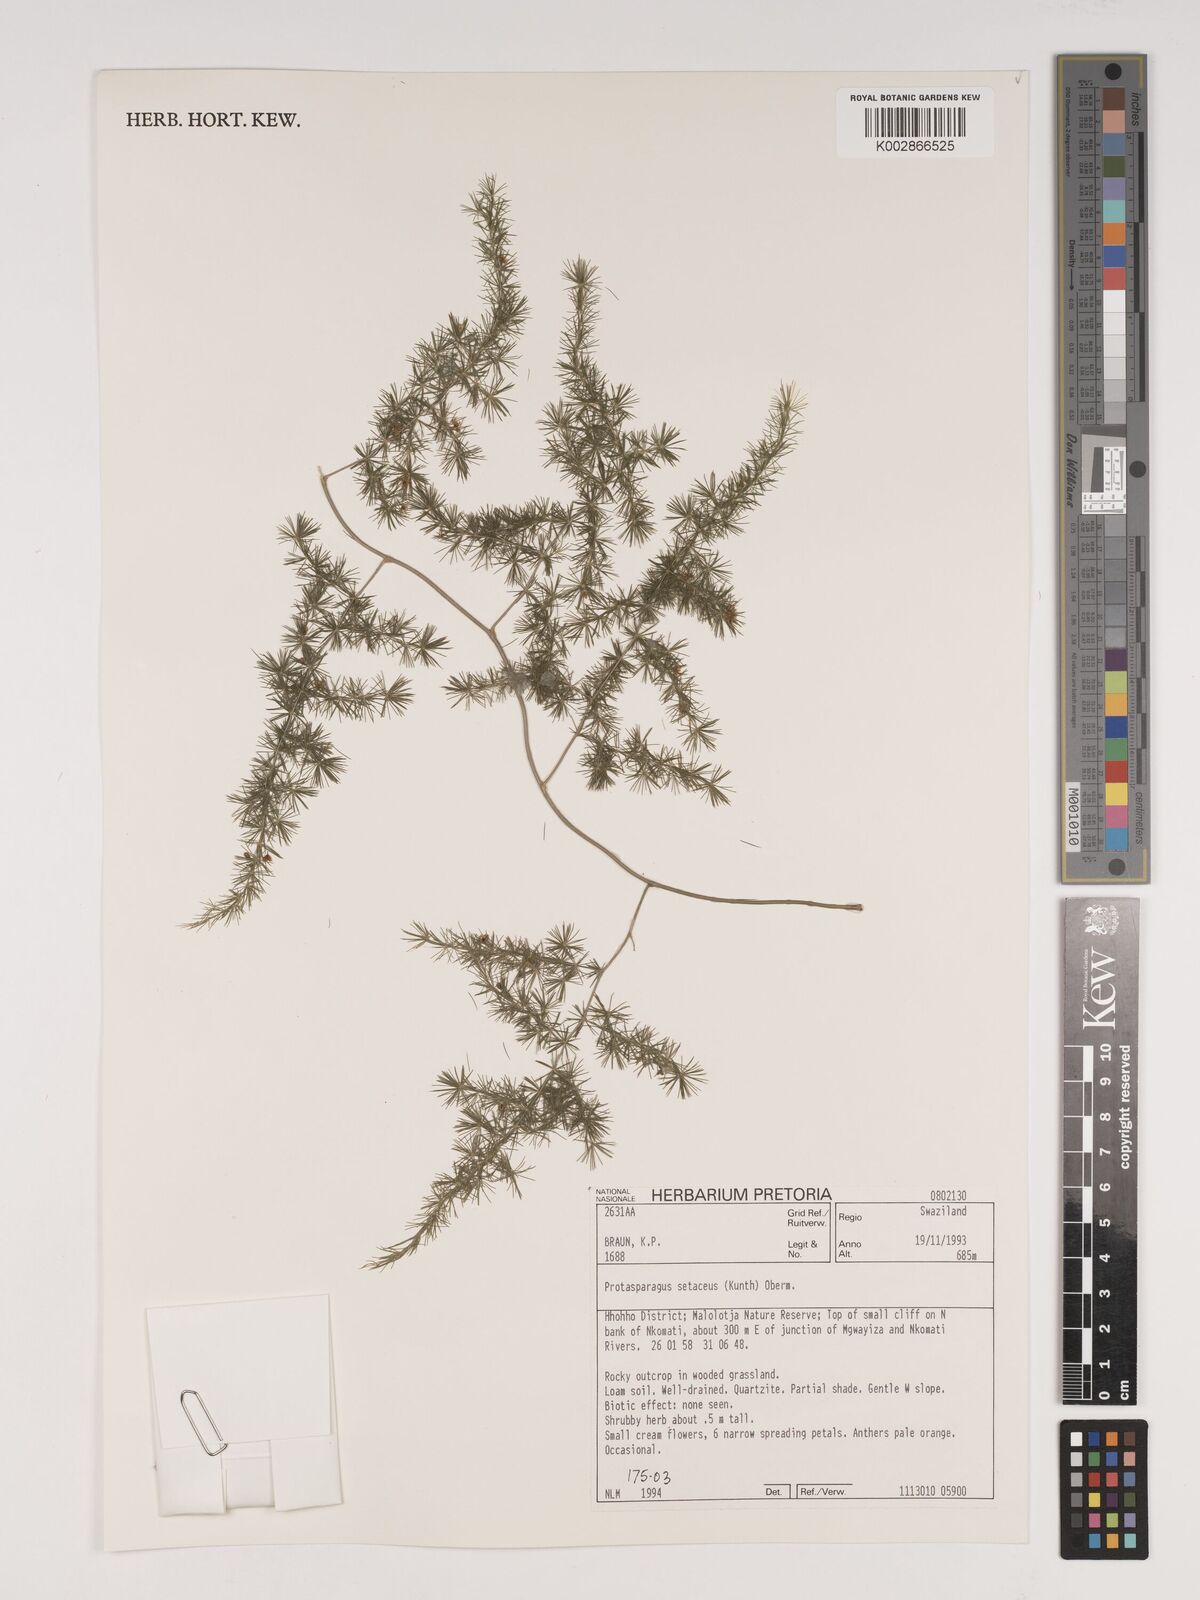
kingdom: Plantae
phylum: Tracheophyta
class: Liliopsida
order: Asparagales
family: Asparagaceae
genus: Asparagus
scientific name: Asparagus setaceus
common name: Common asparagus fern
